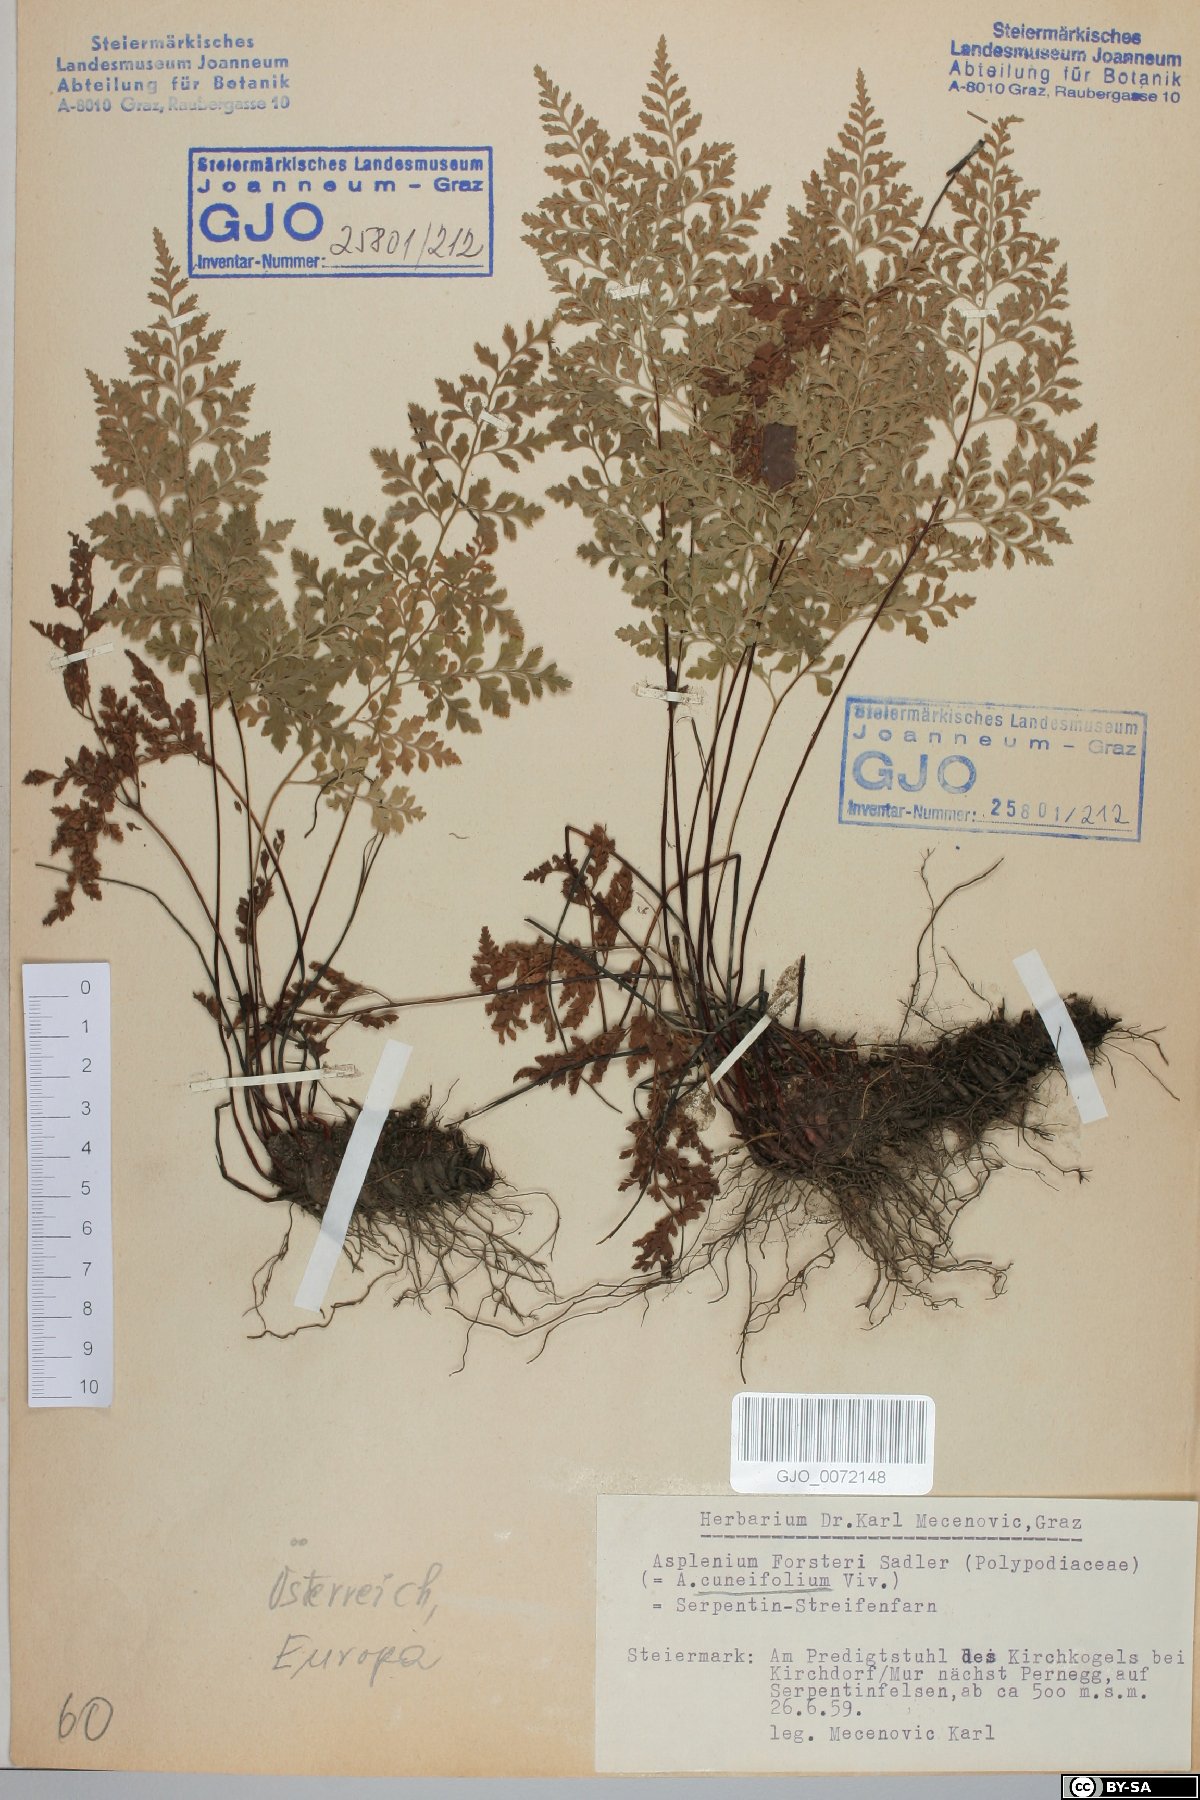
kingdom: Plantae
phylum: Tracheophyta
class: Polypodiopsida
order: Polypodiales
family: Aspleniaceae
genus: Asplenium
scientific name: Asplenium cuneifolium
